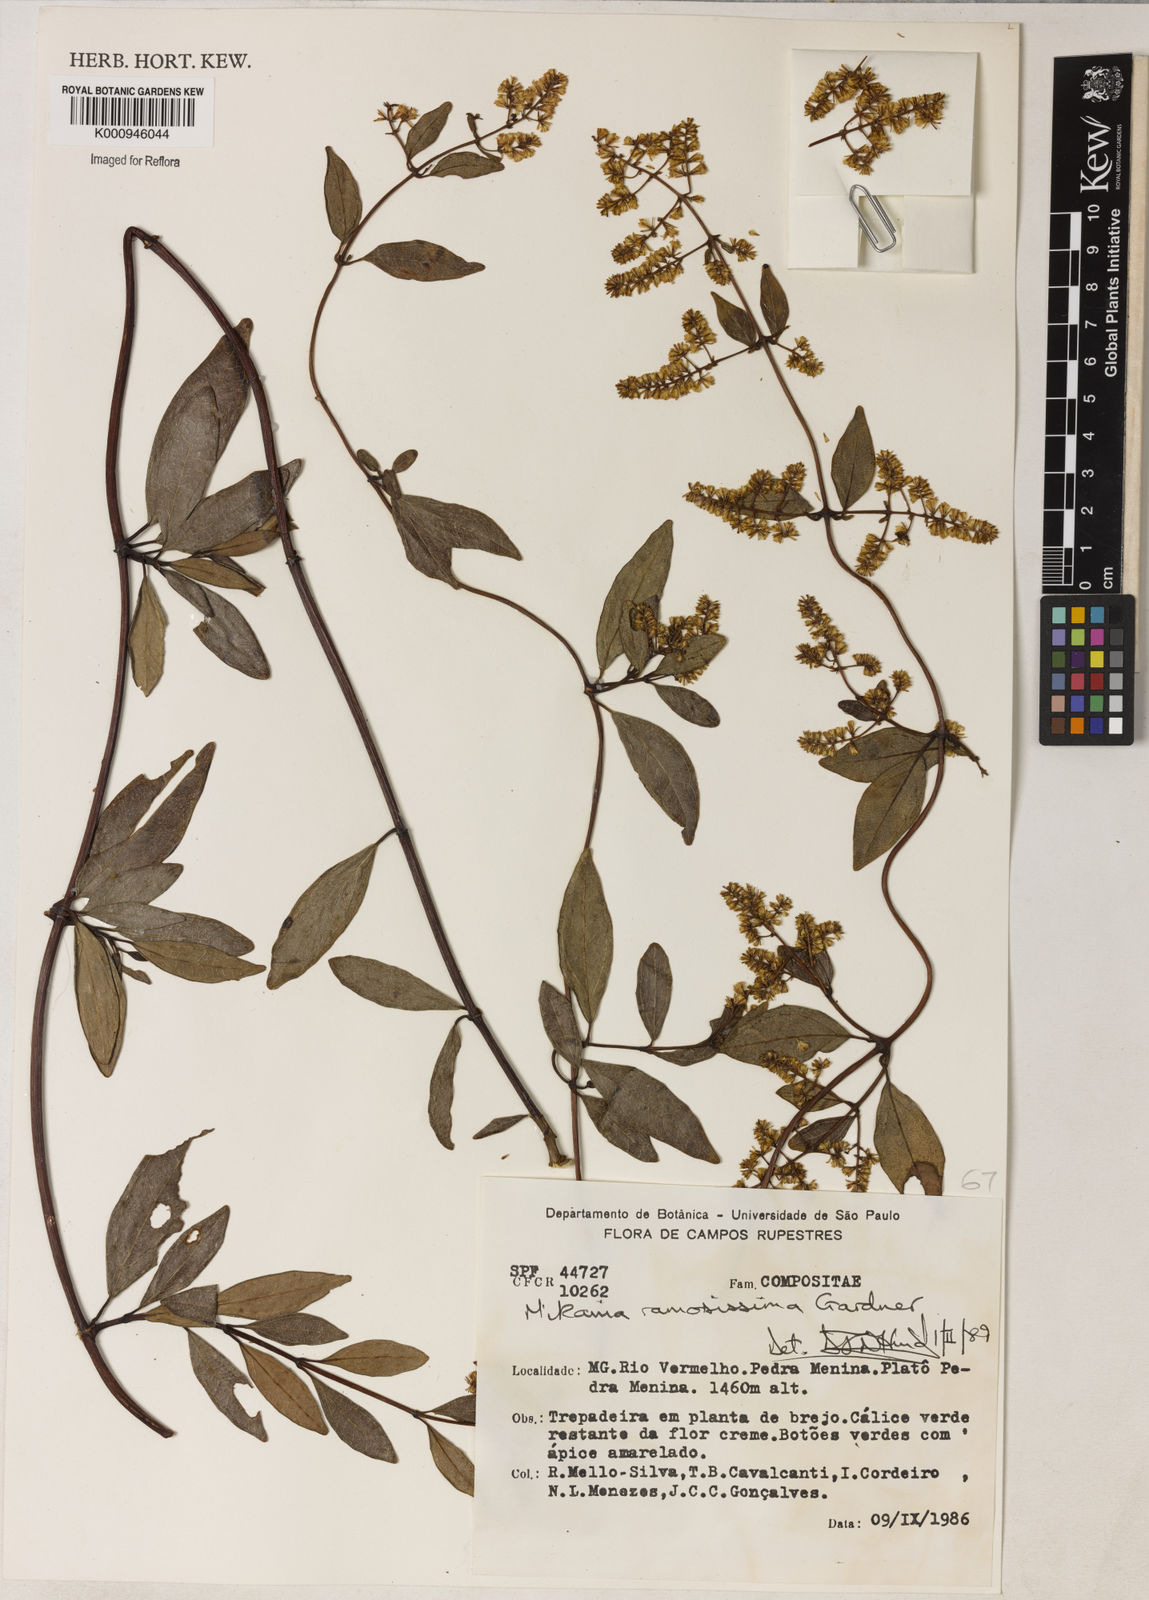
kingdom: Plantae
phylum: Tracheophyta
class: Magnoliopsida
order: Asterales
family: Asteraceae
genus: Mikania
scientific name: Mikania ramosissima
